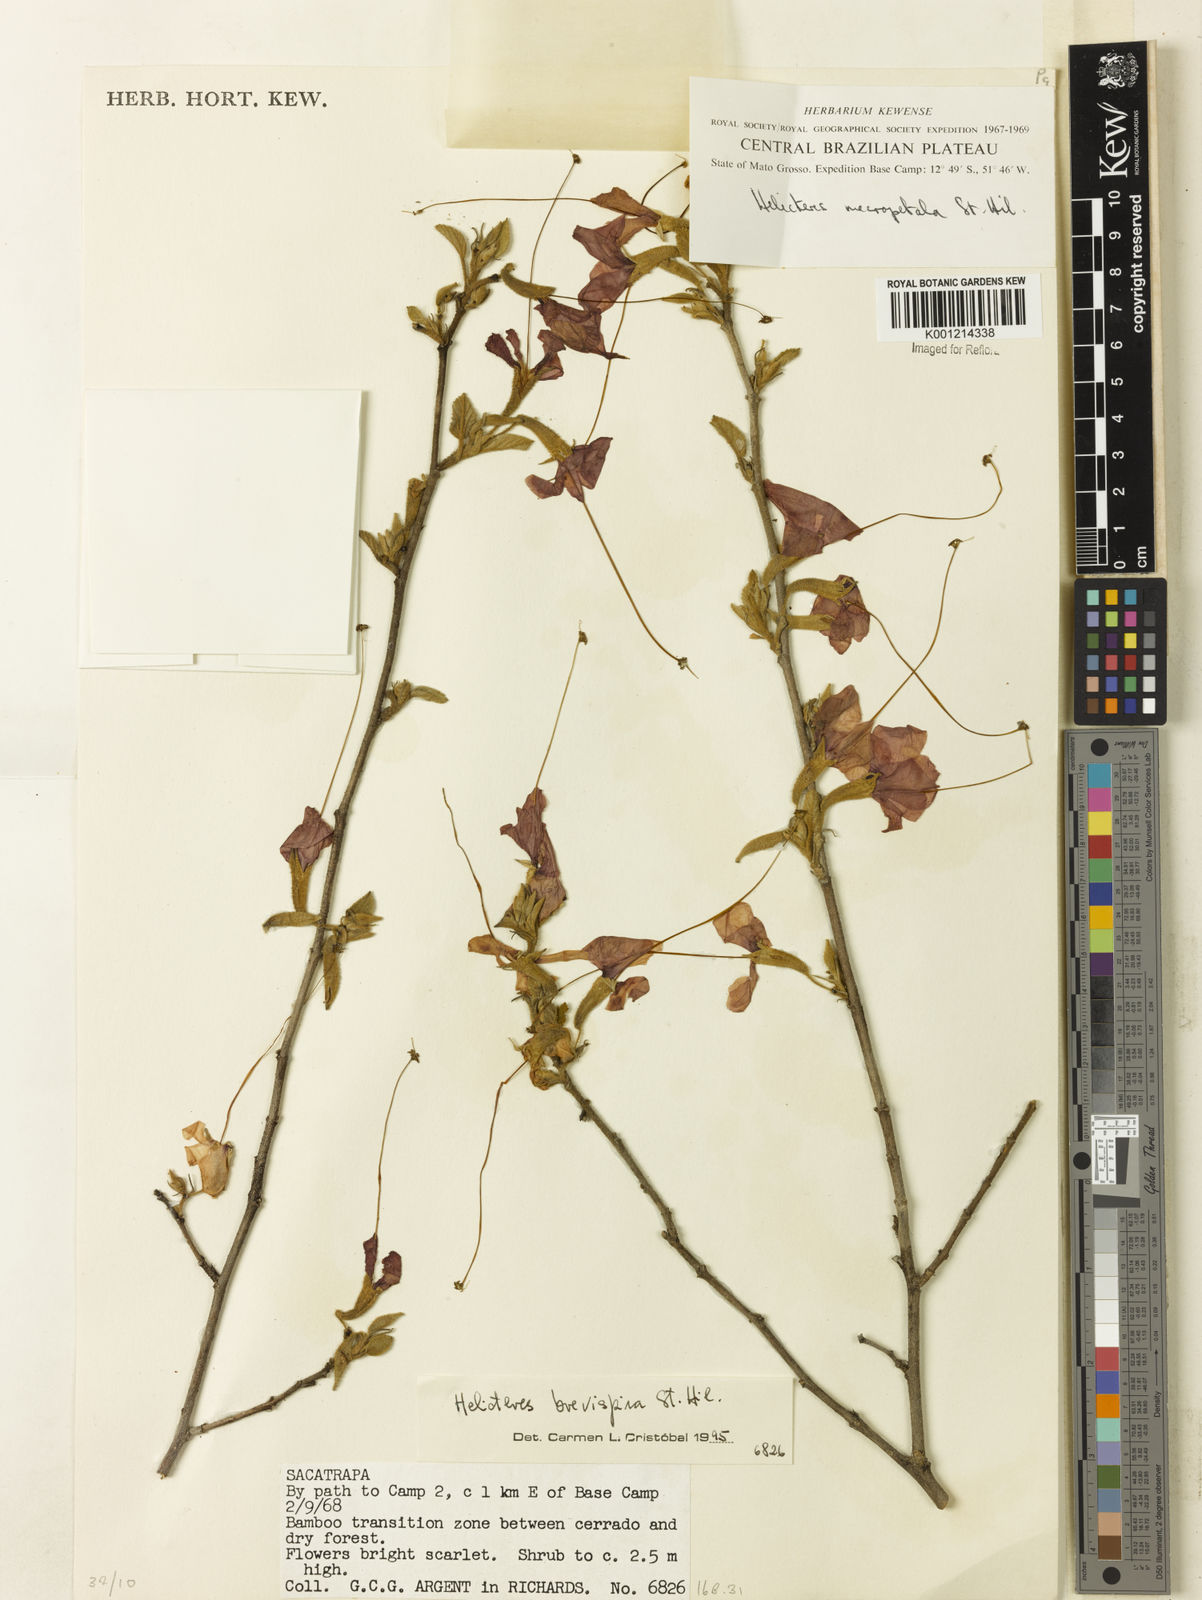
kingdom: Plantae
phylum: Tracheophyta
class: Magnoliopsida
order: Malvales
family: Malvaceae
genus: Helicteres
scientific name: Helicteres
